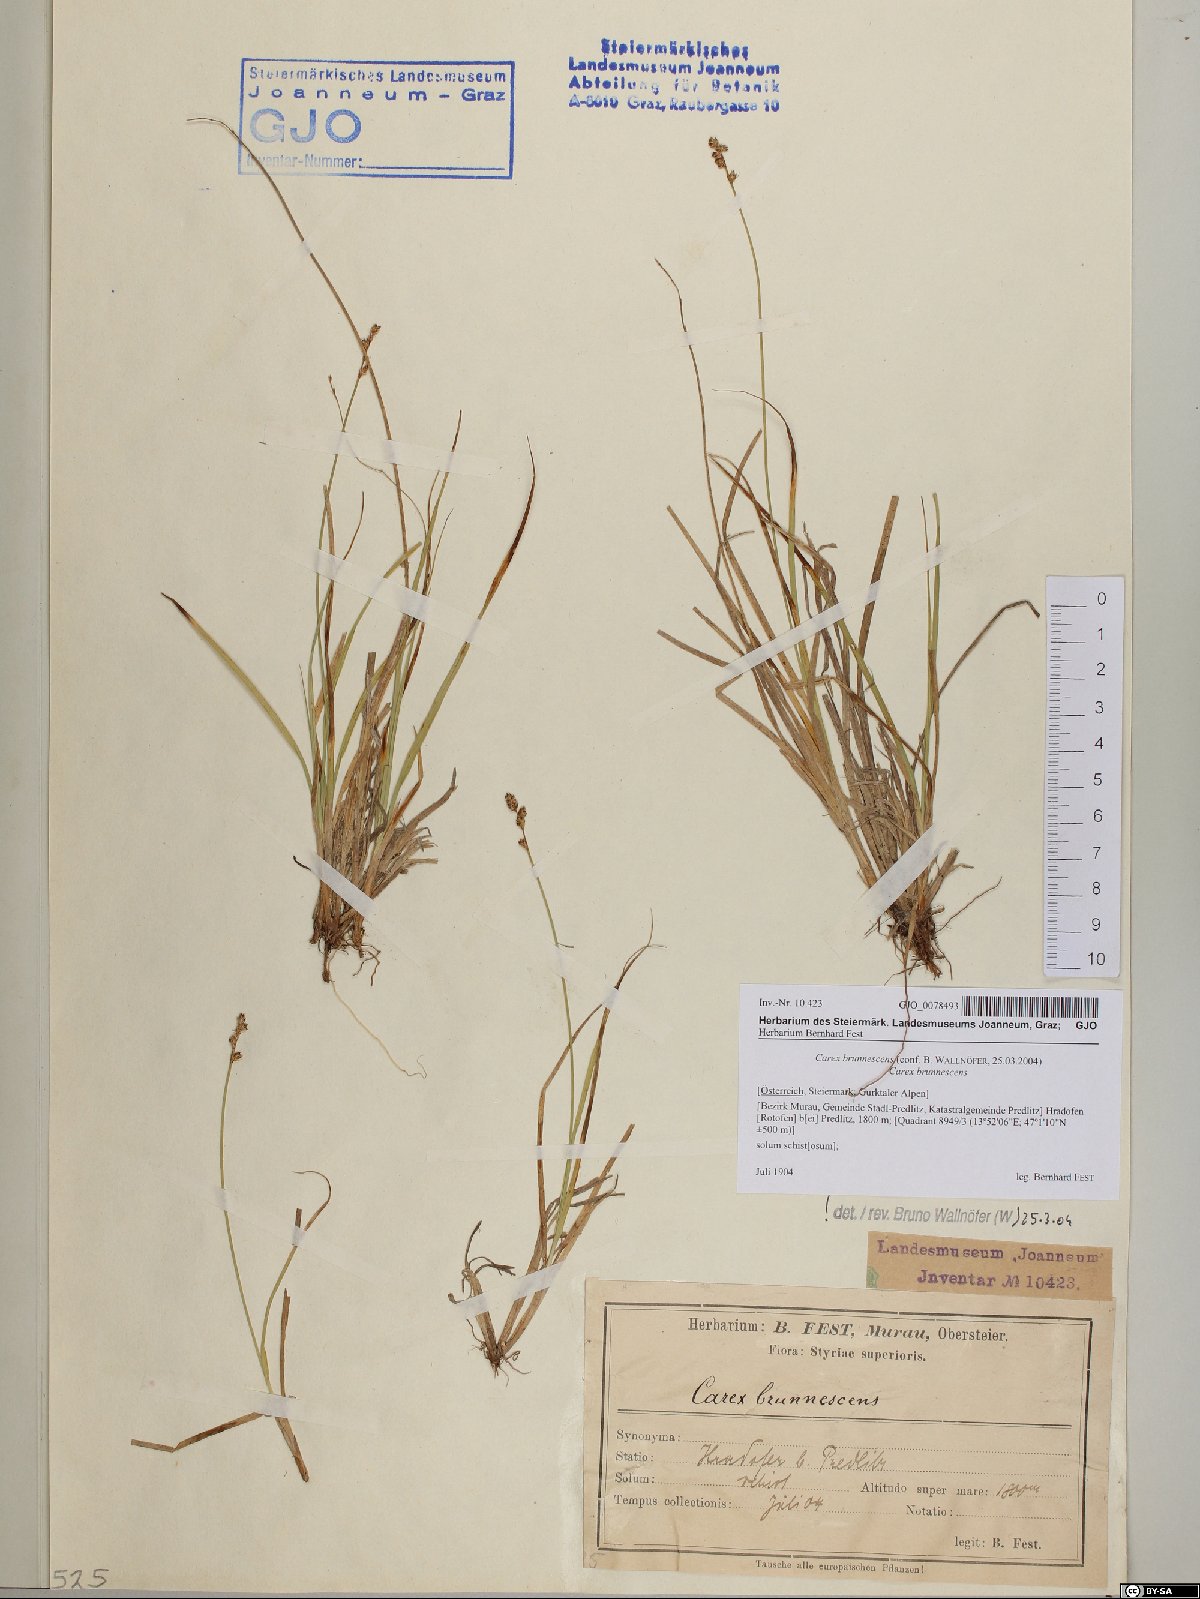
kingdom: Plantae
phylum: Tracheophyta
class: Liliopsida
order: Poales
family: Cyperaceae
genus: Carex
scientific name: Carex brunnescens
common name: Brown sedge
